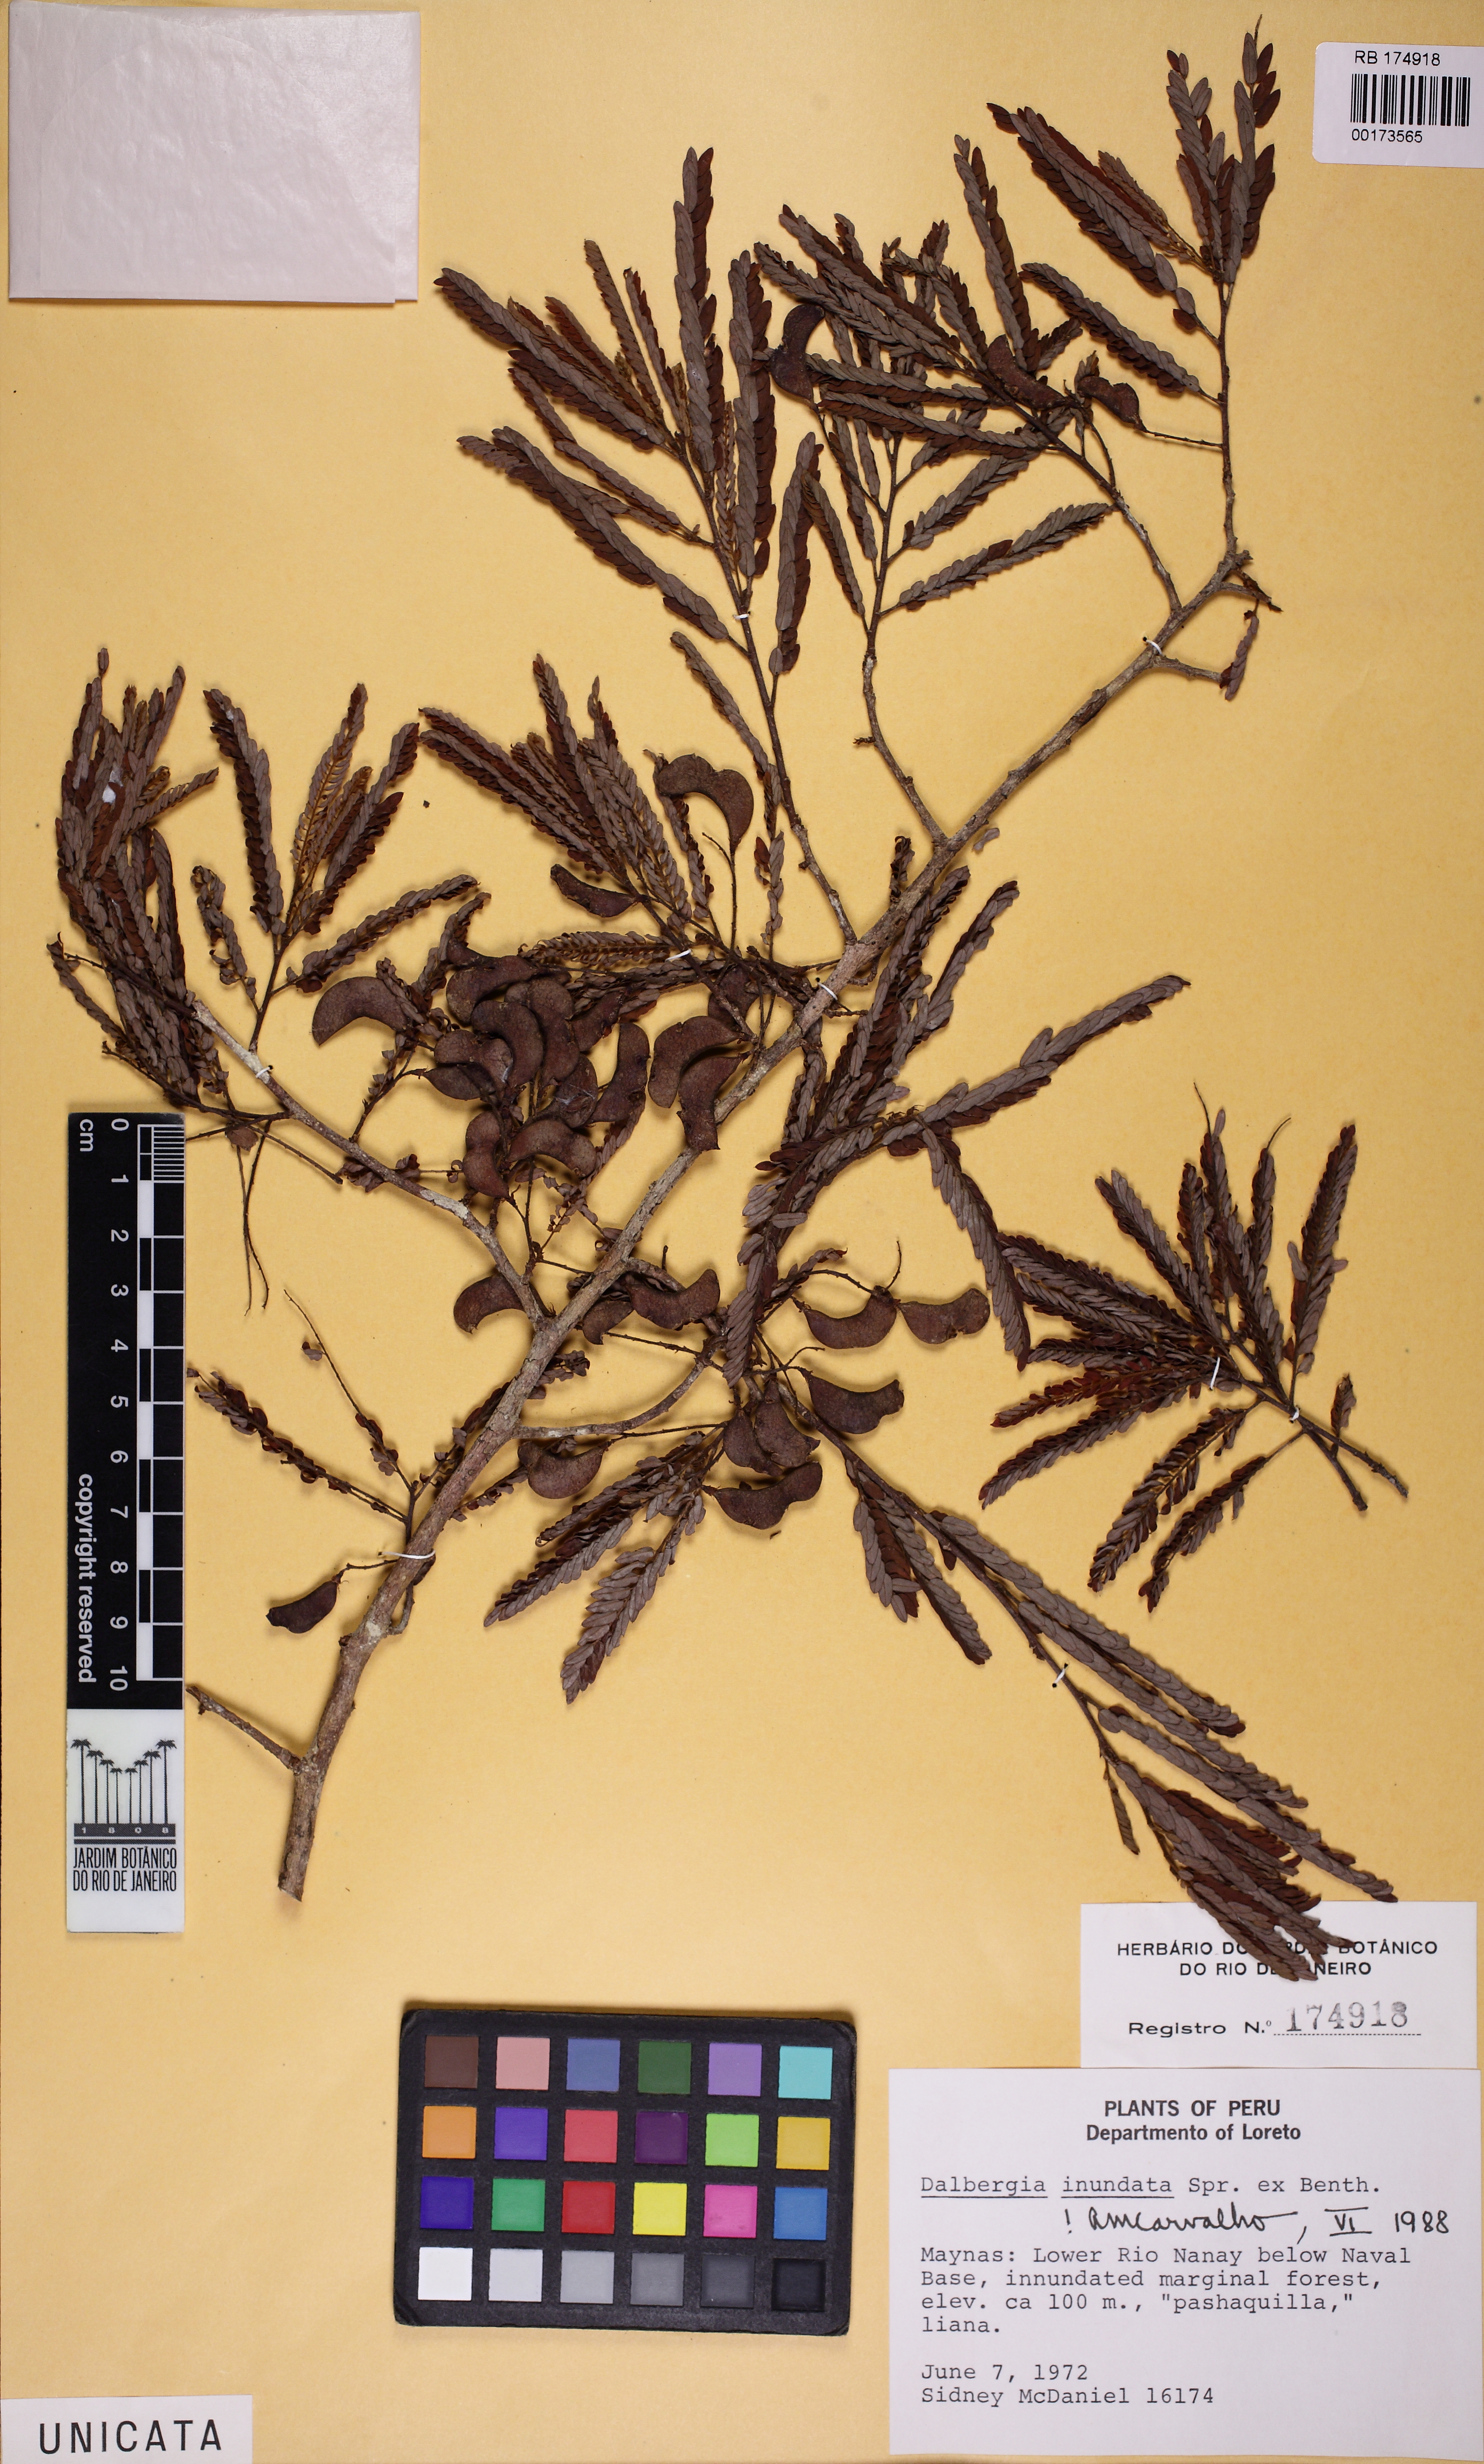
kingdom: Plantae
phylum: Tracheophyta
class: Magnoliopsida
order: Fabales
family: Fabaceae
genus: Dalbergia
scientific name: Dalbergia inundata
